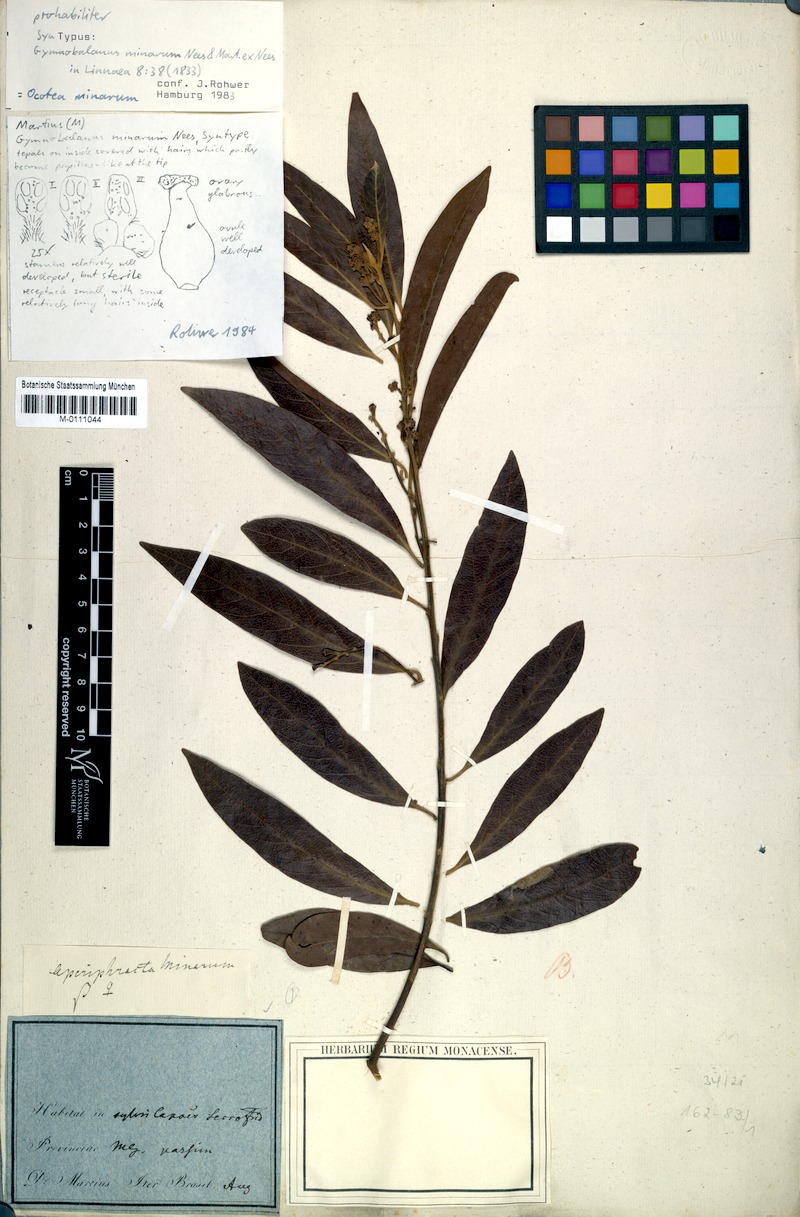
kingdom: Plantae
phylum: Tracheophyta
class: Magnoliopsida
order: Laurales
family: Lauraceae
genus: Ocotea
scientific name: Ocotea minarum
